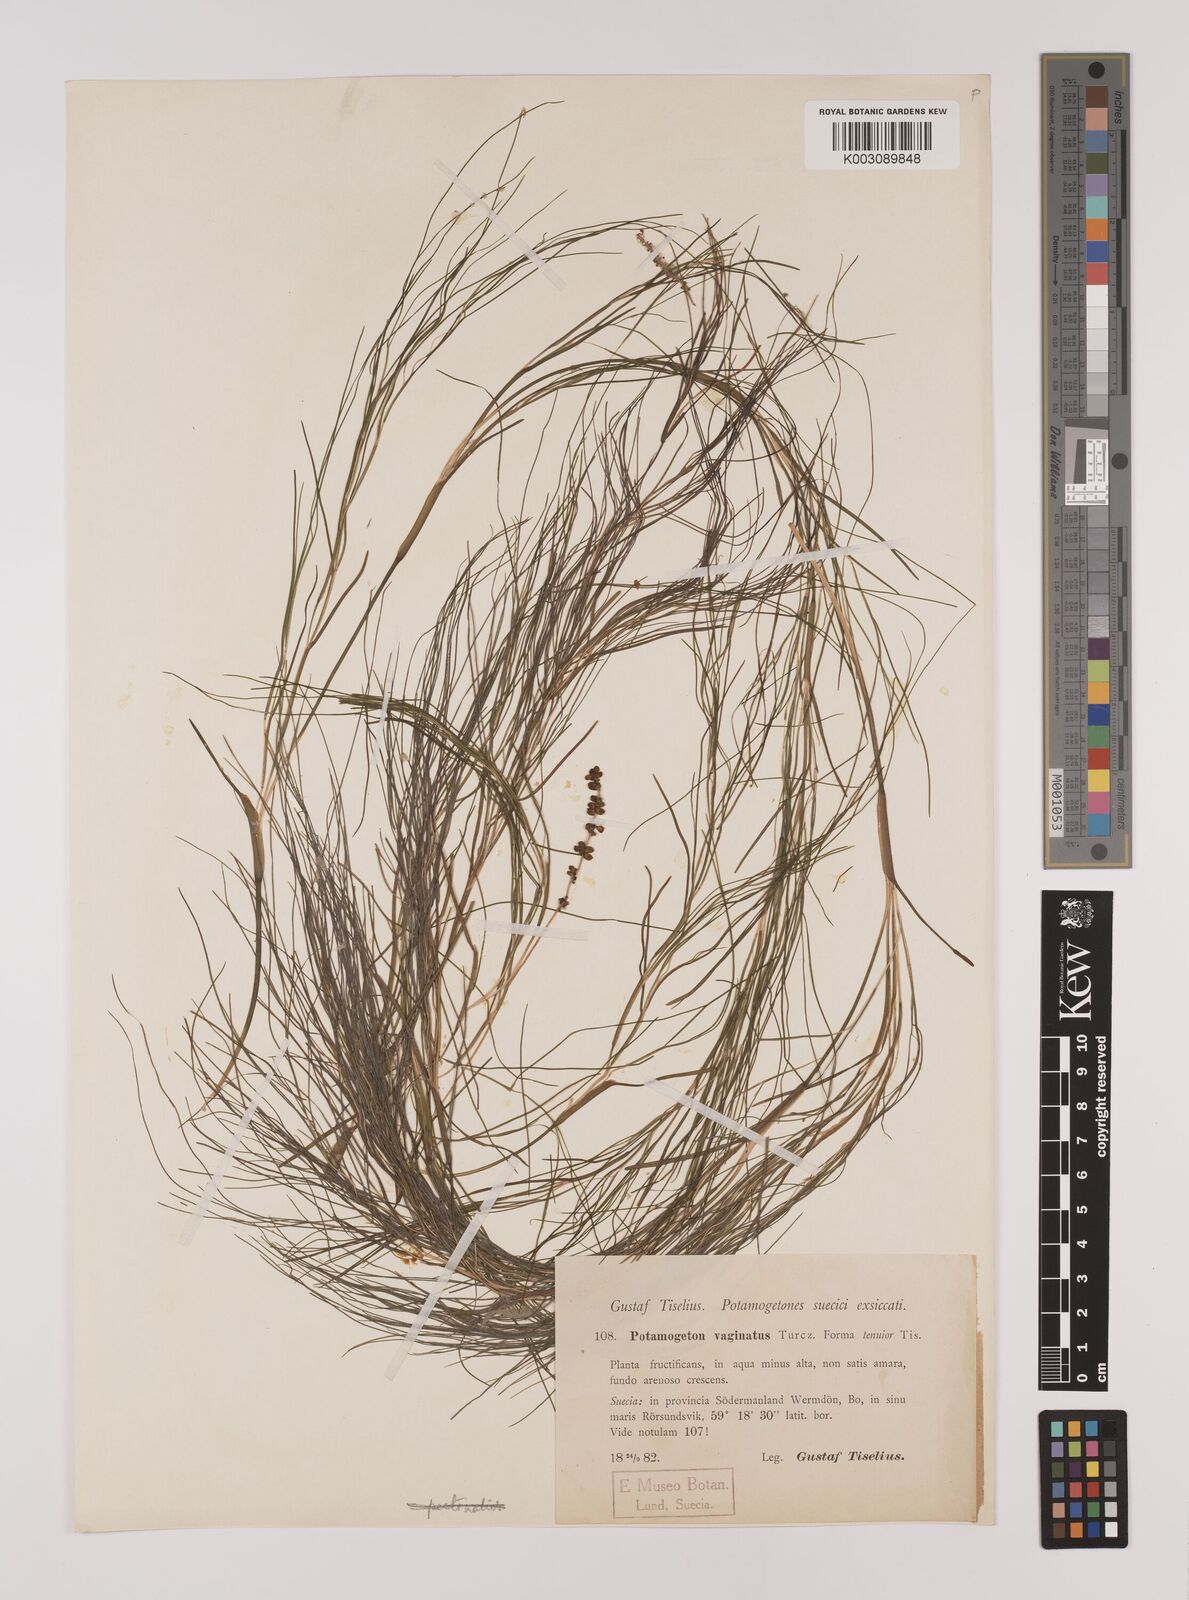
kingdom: Plantae
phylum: Tracheophyta
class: Liliopsida
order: Alismatales
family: Potamogetonaceae
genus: Stuckenia
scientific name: Stuckenia pectinata
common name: Sago pondweed
